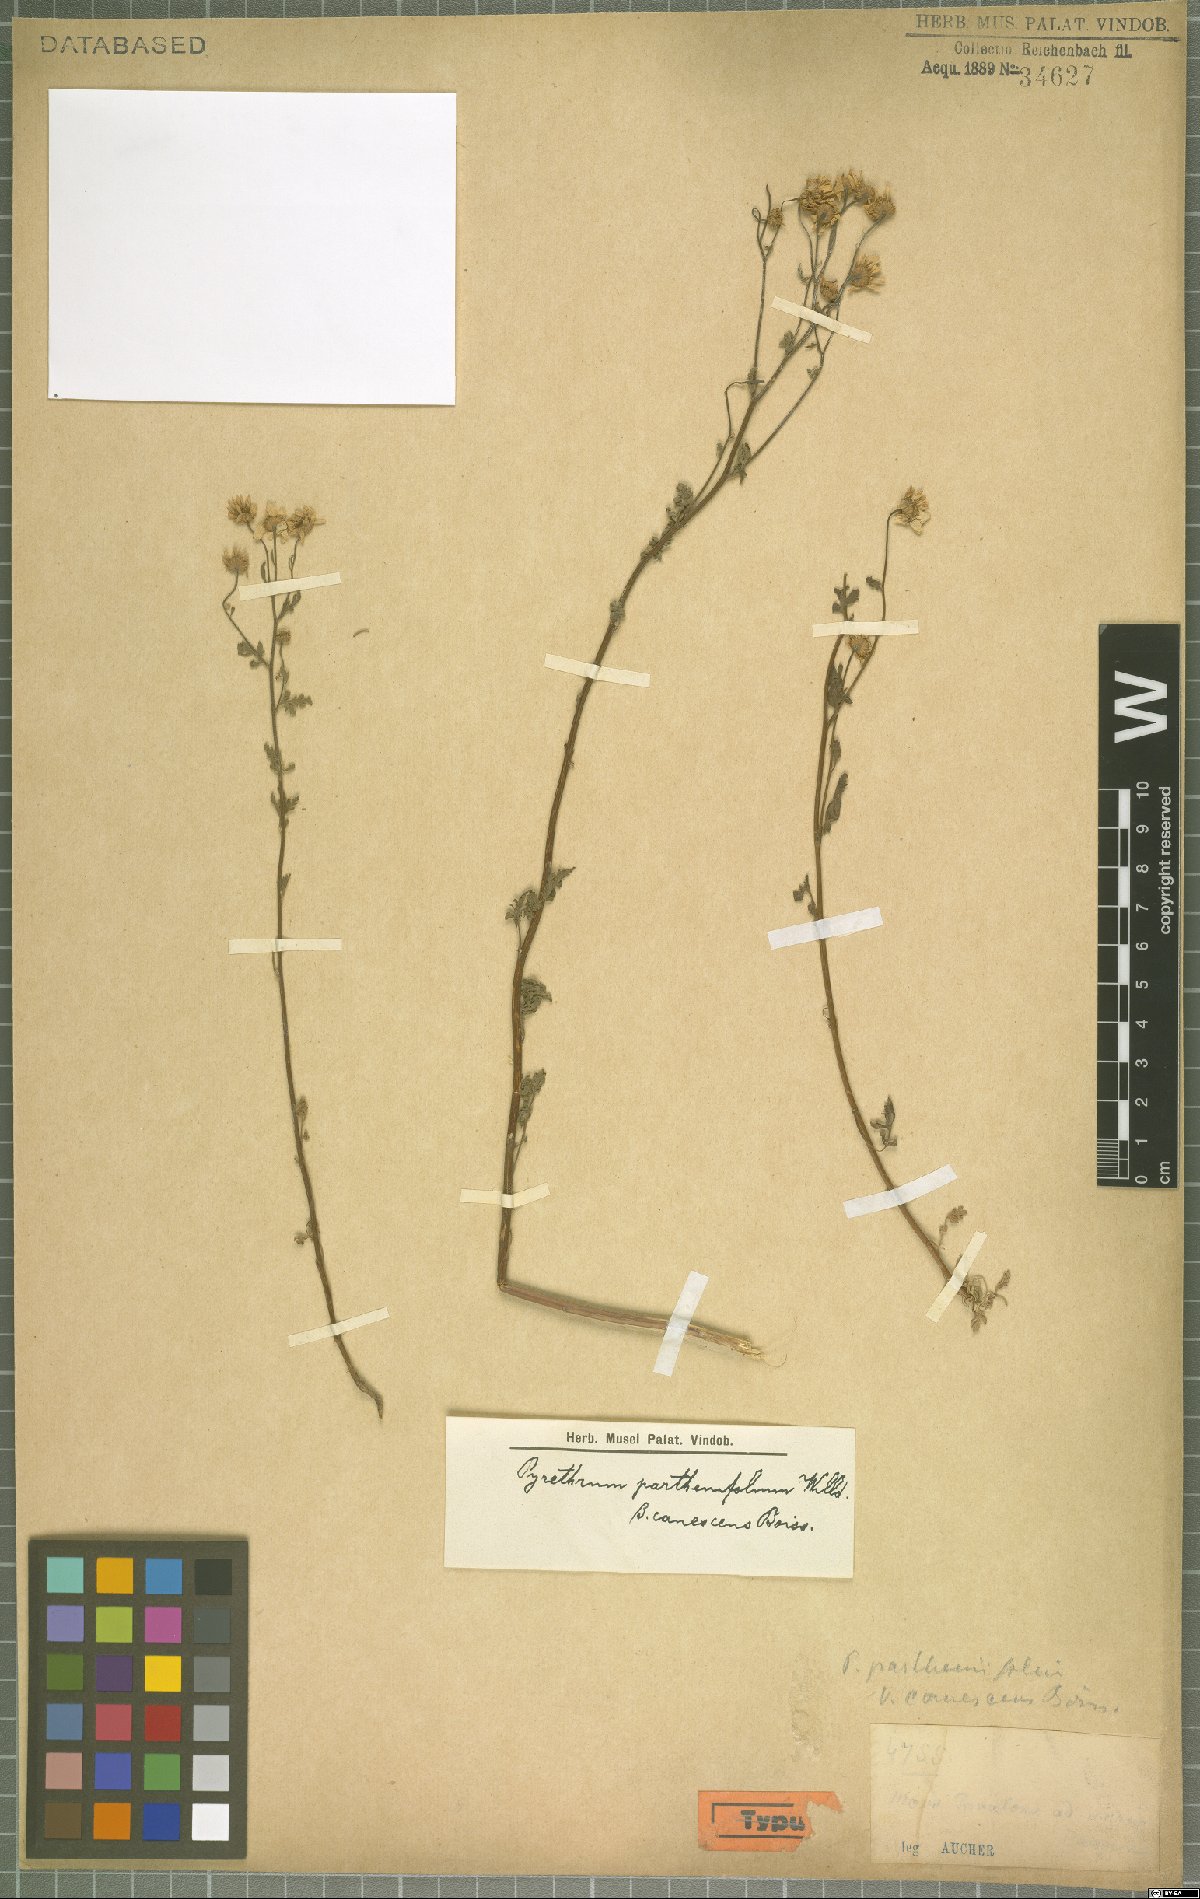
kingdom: Plantae
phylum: Tracheophyta
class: Magnoliopsida
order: Asterales
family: Asteraceae
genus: Tanacetum
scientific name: Tanacetum parthenium
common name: Feverfew
